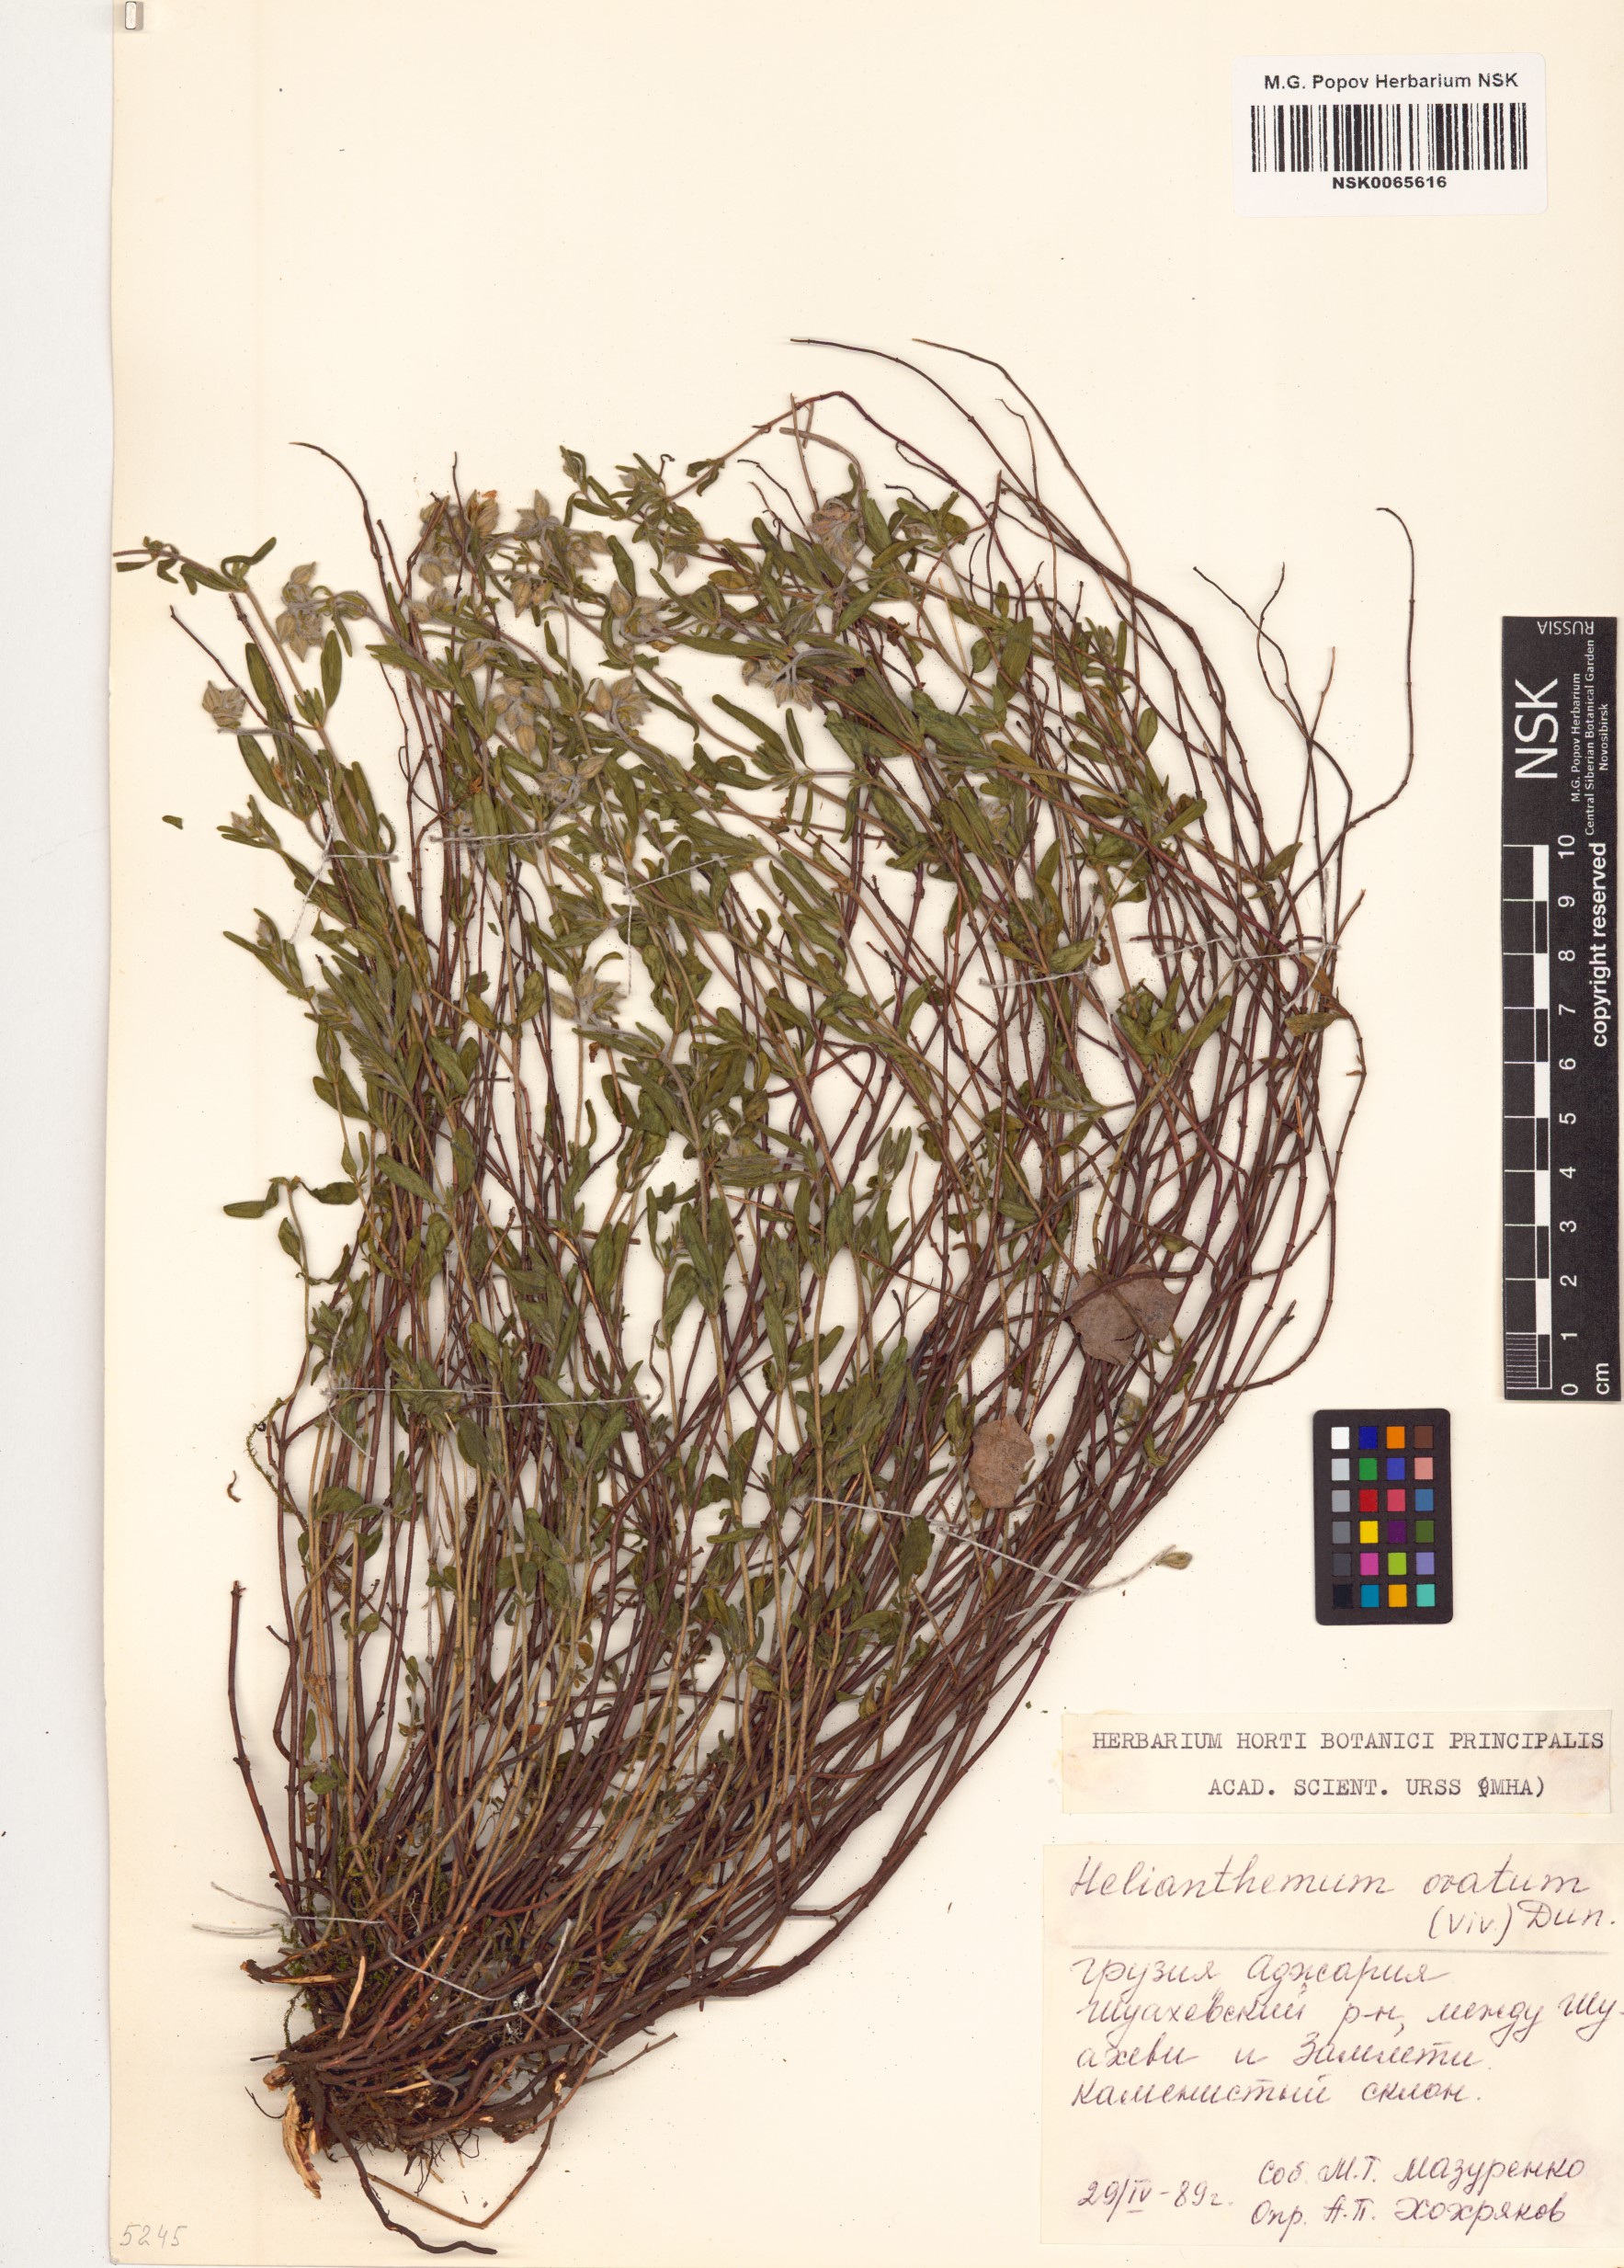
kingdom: Plantae
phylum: Tracheophyta
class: Magnoliopsida
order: Malvales
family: Cistaceae
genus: Helianthemum
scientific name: Helianthemum nummularium
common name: Common rock-rose
